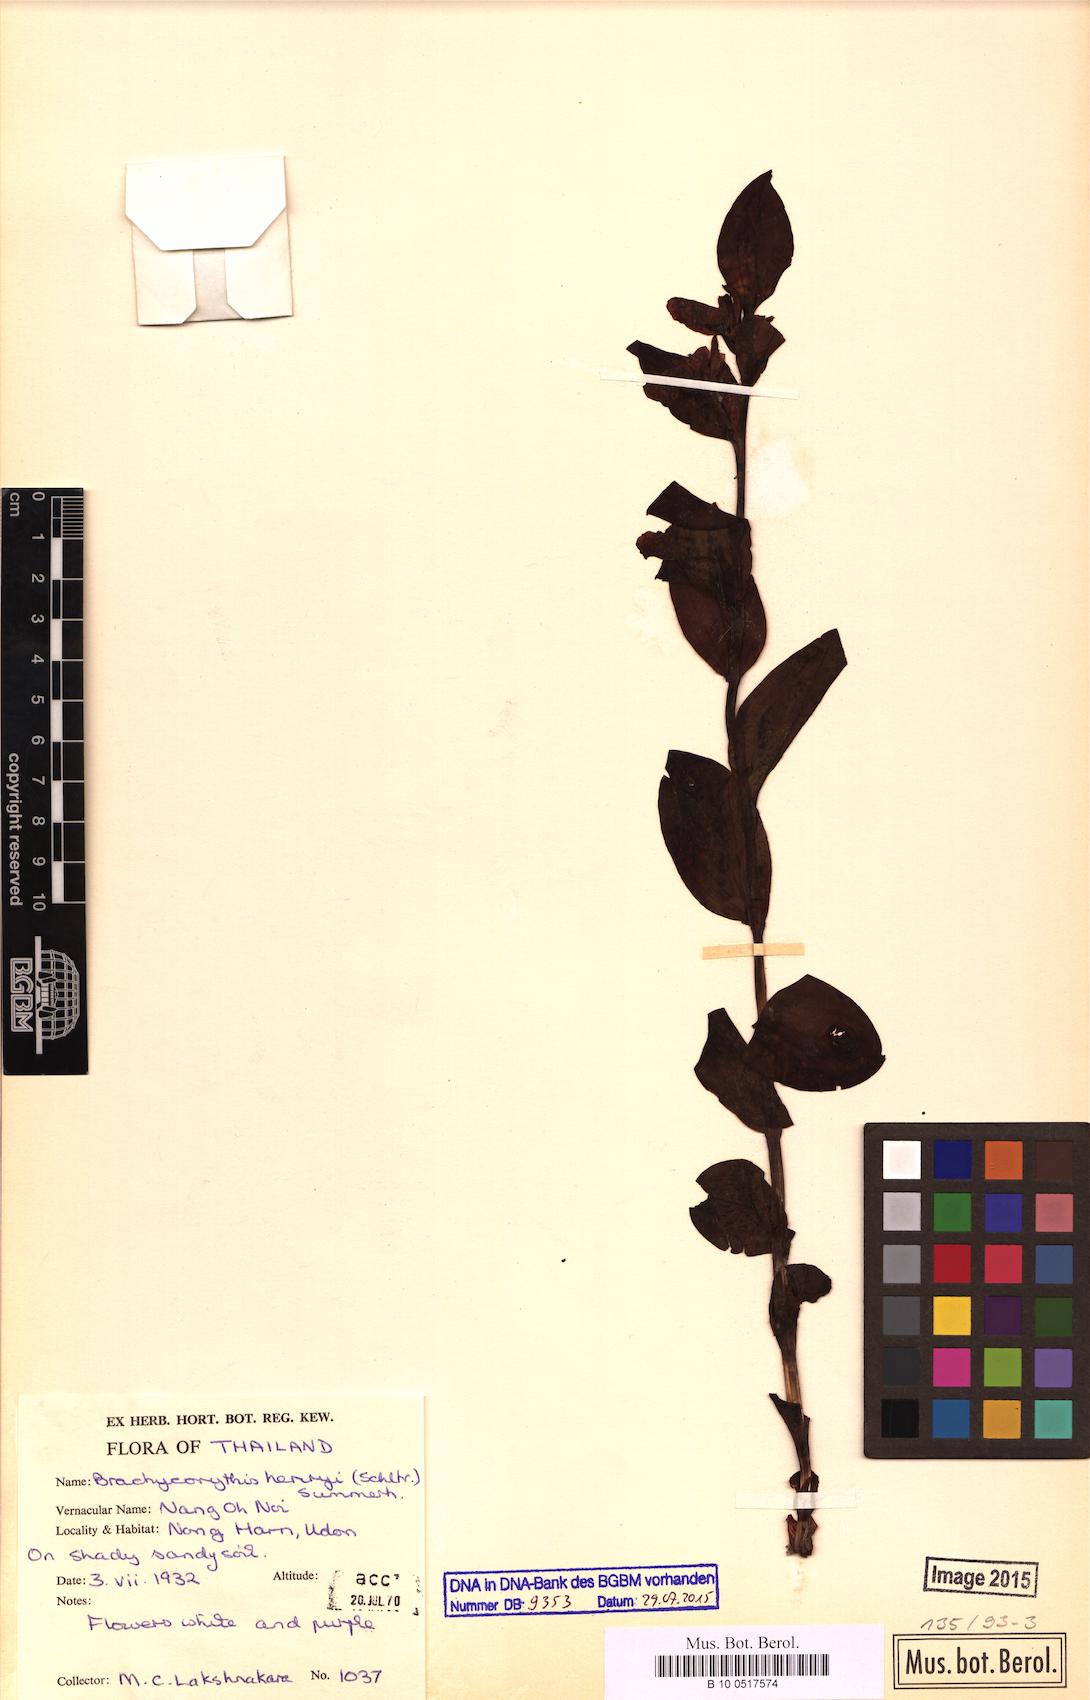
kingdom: Plantae
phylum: Tracheophyta
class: Liliopsida
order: Asparagales
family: Orchidaceae
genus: Brachycorythis
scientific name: Brachycorythis henryi
